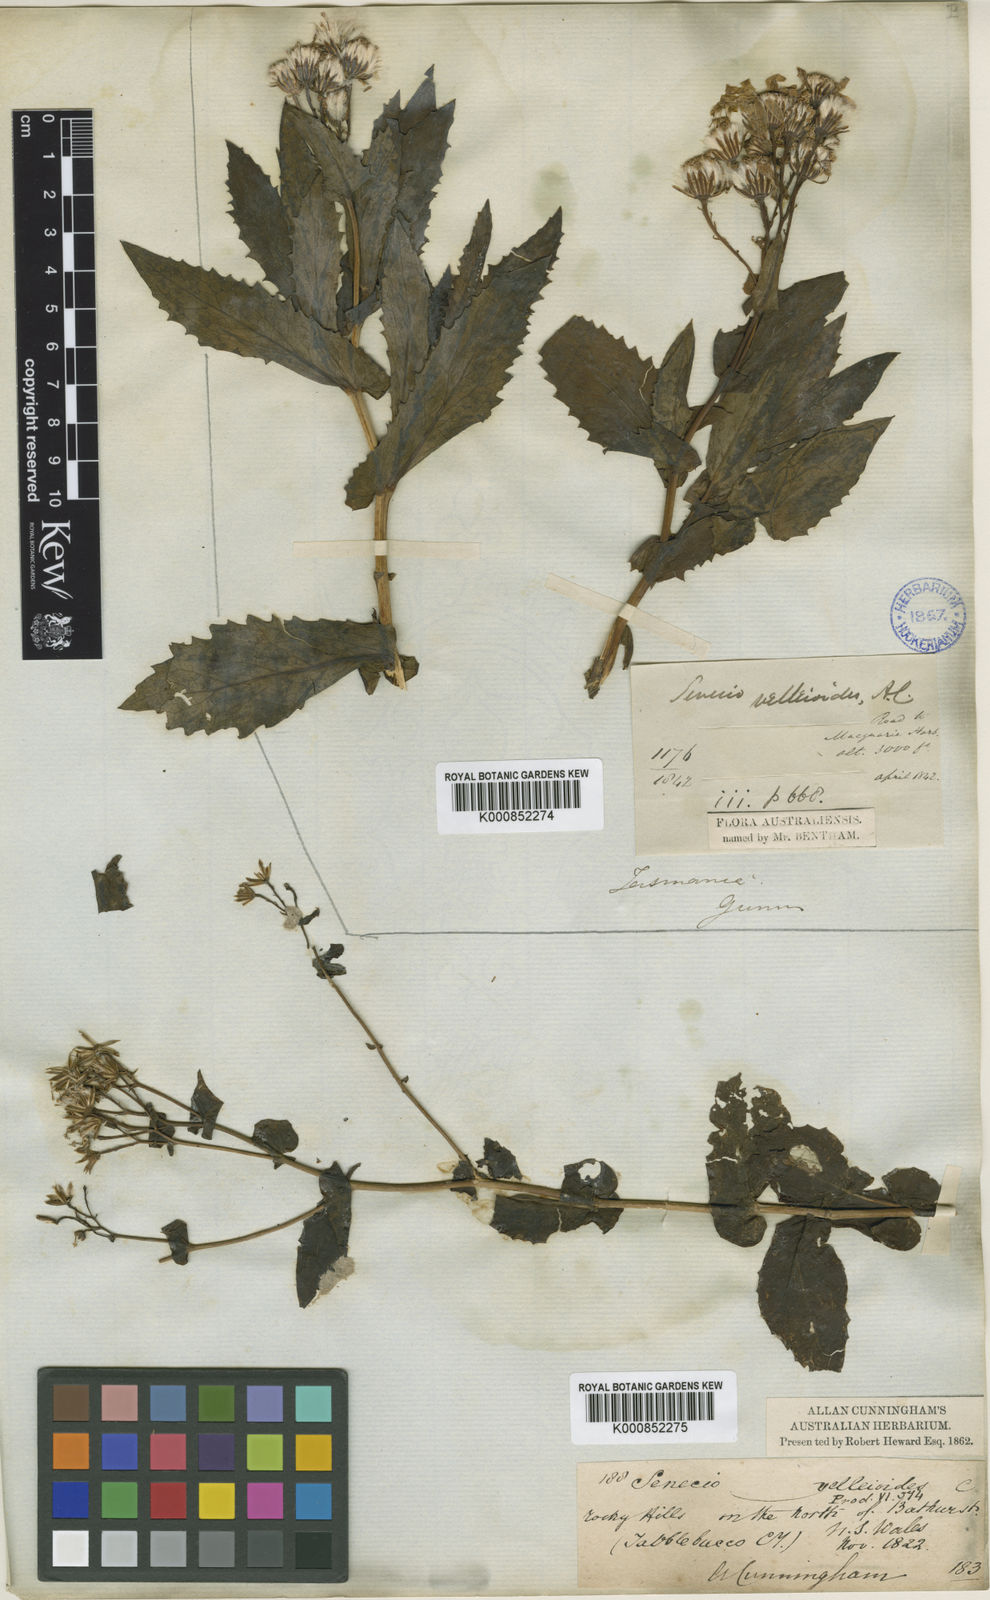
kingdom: Plantae
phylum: Tracheophyta
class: Magnoliopsida
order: Asterales
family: Asteraceae
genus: Lordhowea
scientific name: Lordhowea velleioides
